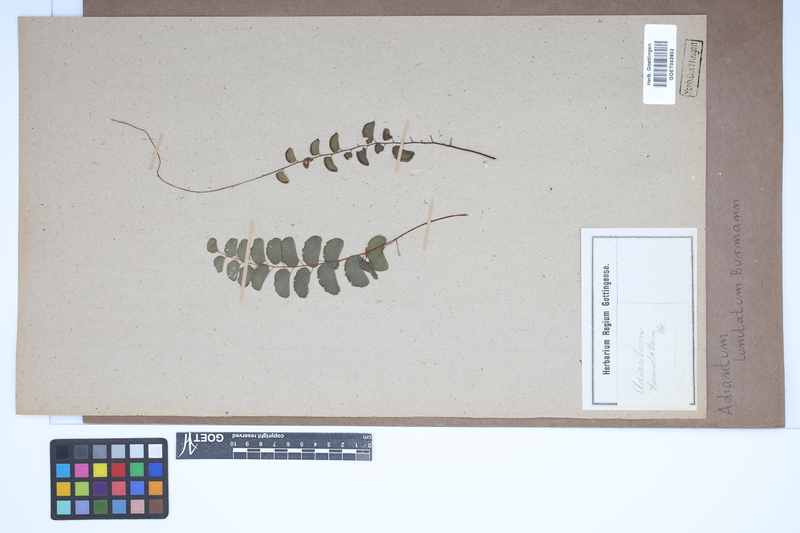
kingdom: Plantae
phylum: Tracheophyta
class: Polypodiopsida
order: Polypodiales
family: Pteridaceae
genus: Adiantum
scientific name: Adiantum philippense
